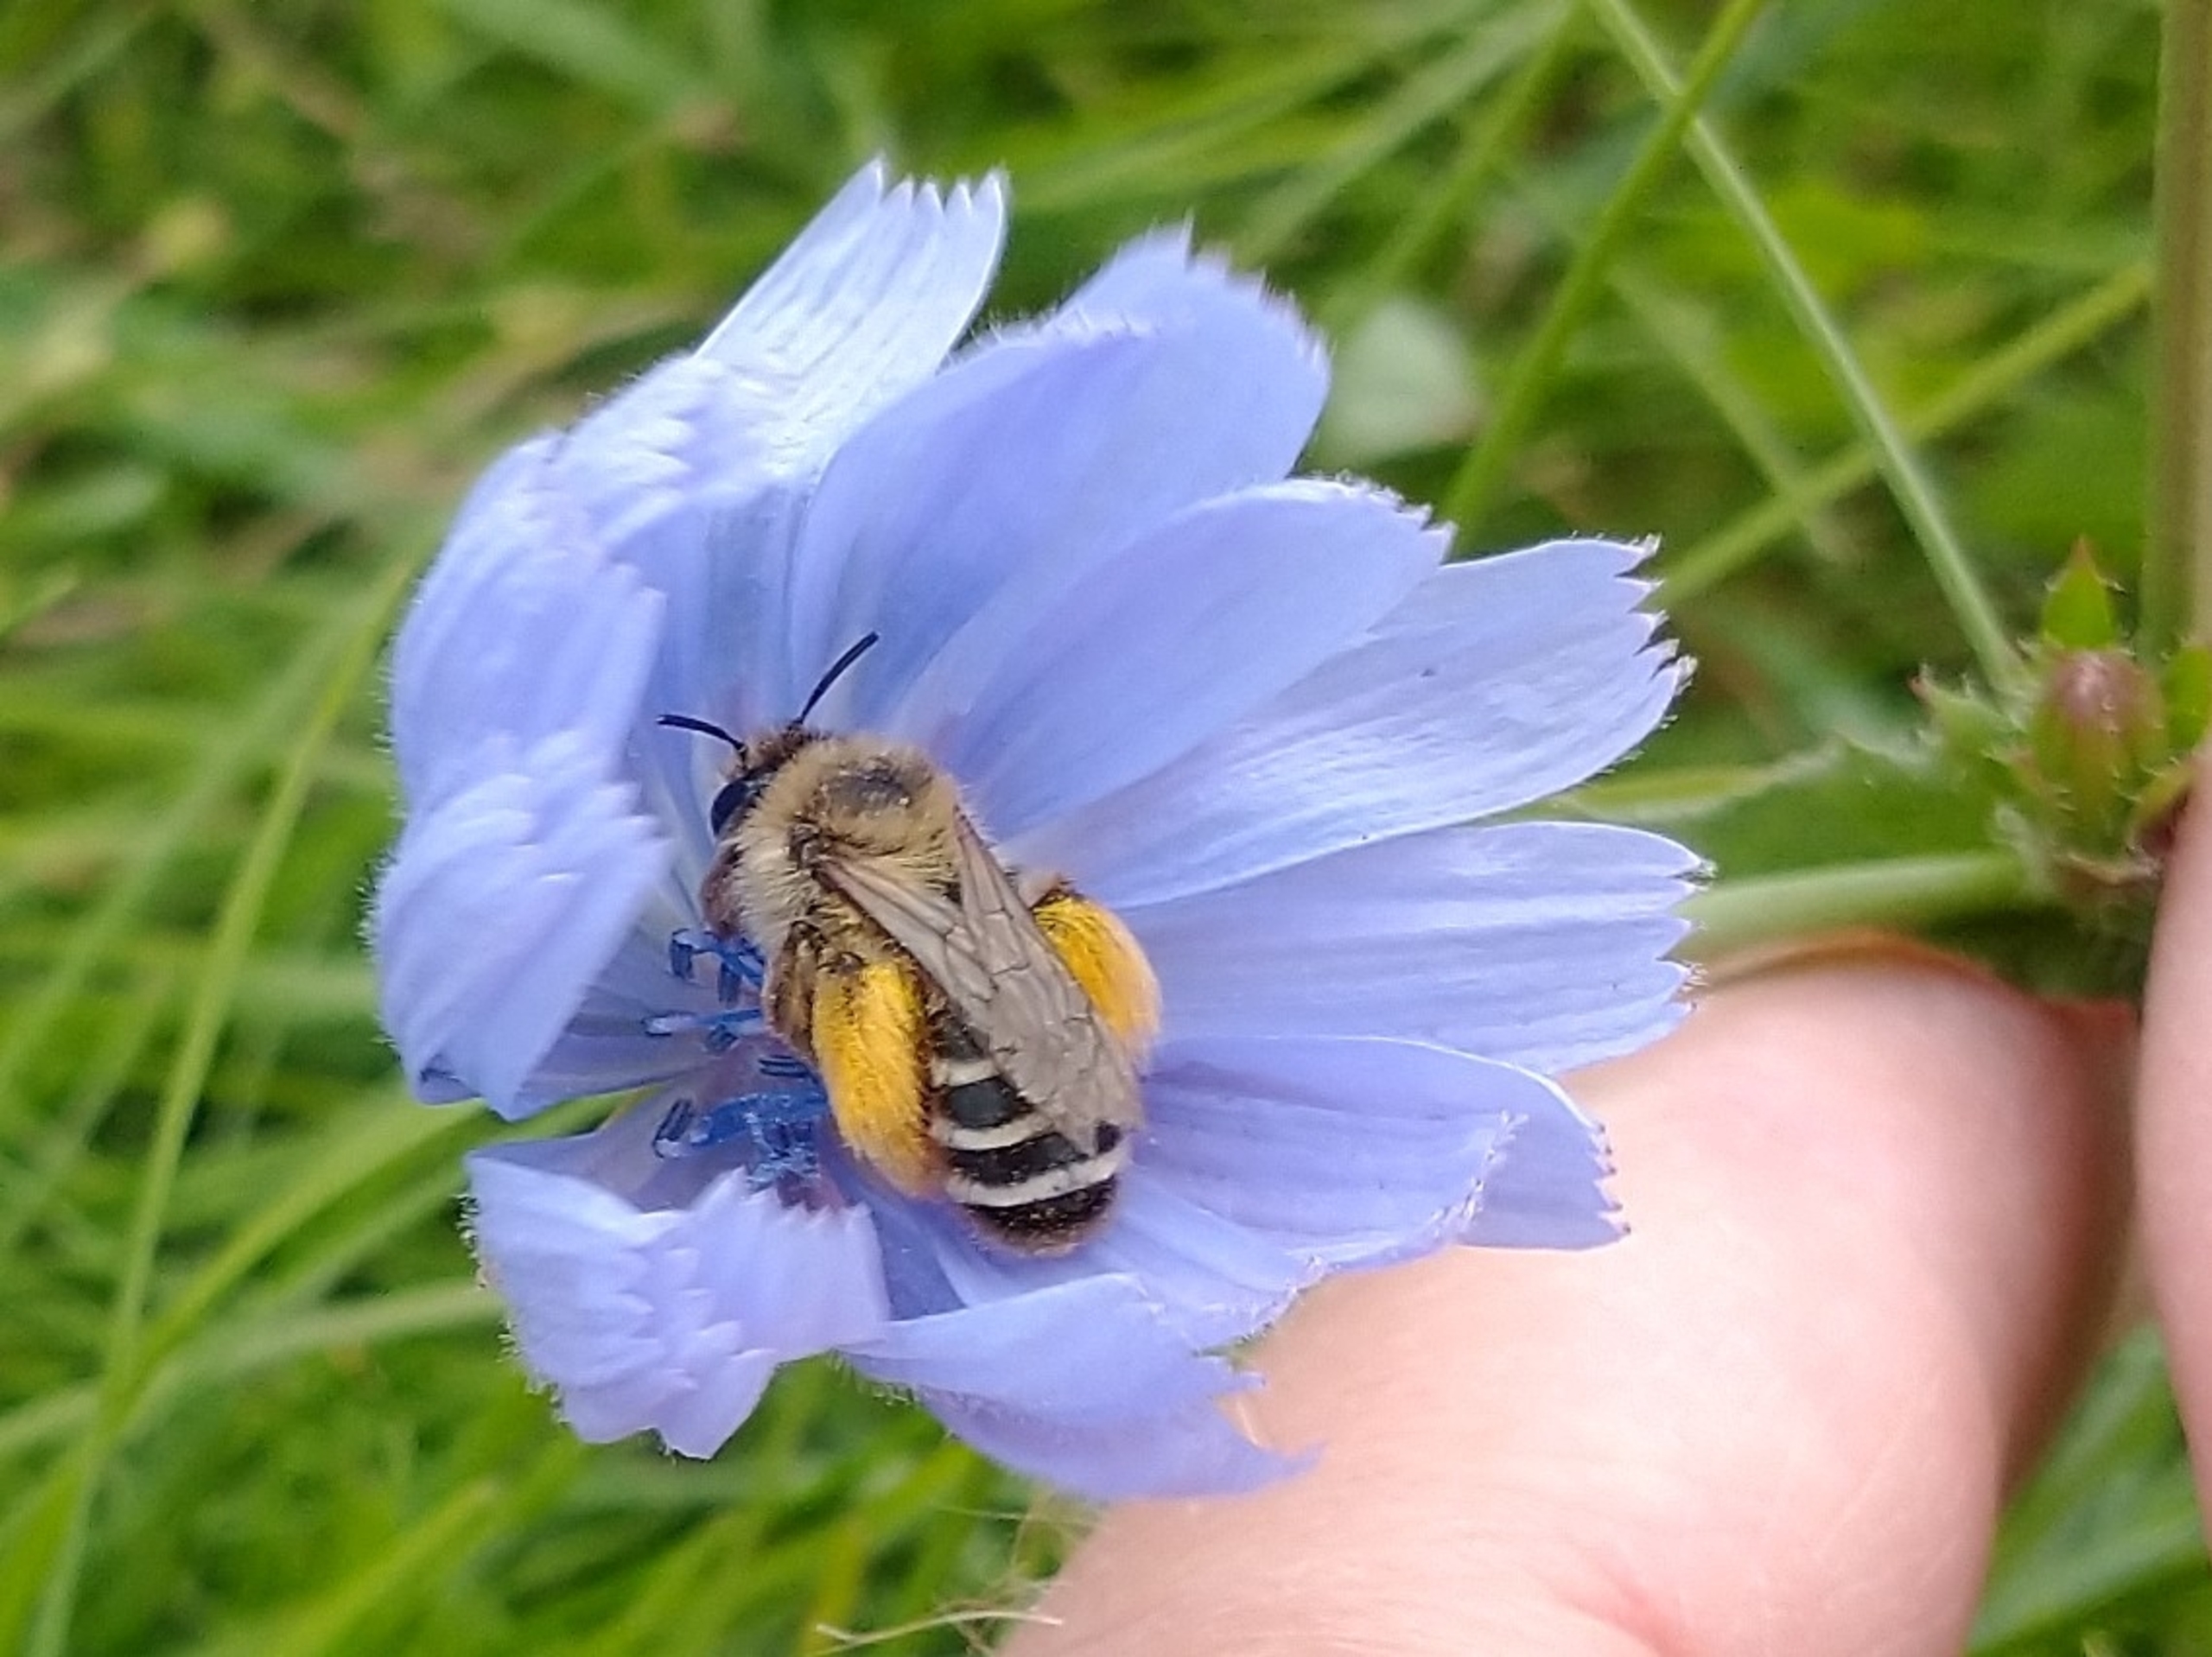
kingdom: Animalia
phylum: Arthropoda
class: Insecta
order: Hymenoptera
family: Melittidae
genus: Dasypoda
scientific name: Dasypoda hirtipes
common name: Pragtbuksebi
